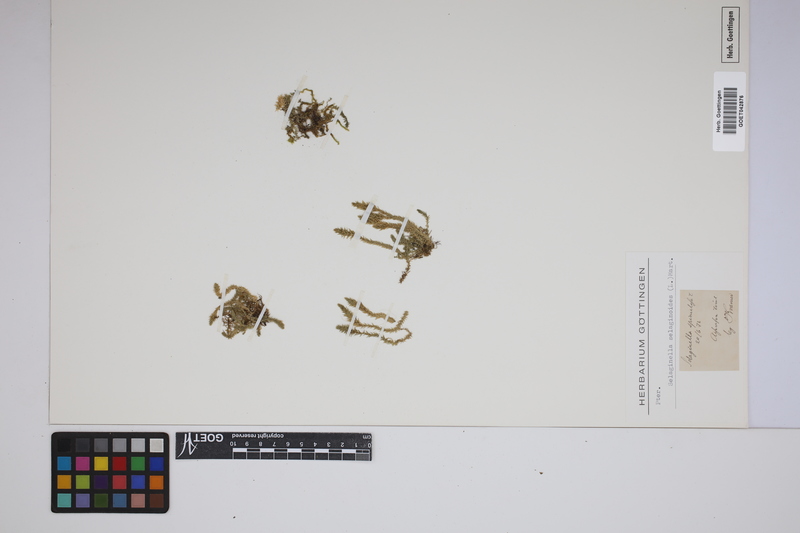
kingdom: Plantae
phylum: Tracheophyta
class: Lycopodiopsida
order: Selaginellales
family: Selaginellaceae
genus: Selaginella
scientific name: Selaginella selaginoides
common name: Prickly mountain-moss
